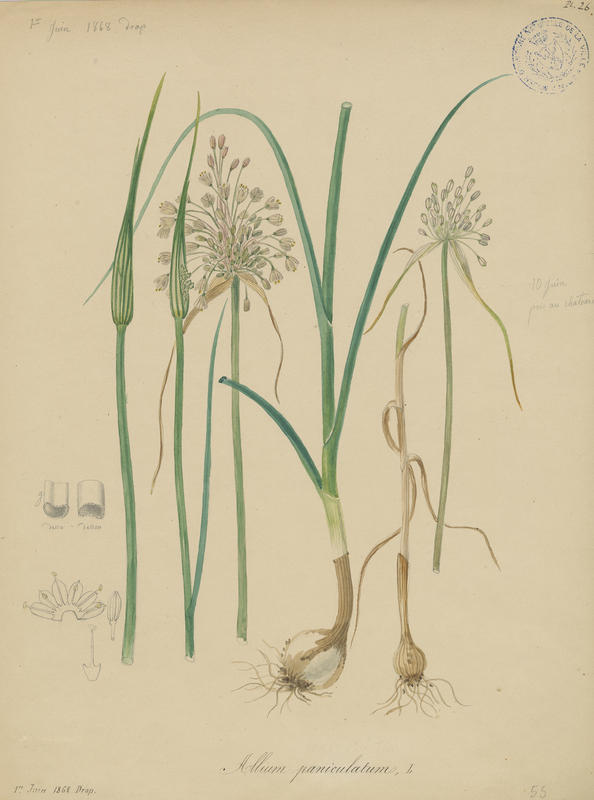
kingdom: Plantae
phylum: Tracheophyta
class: Liliopsida
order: Asparagales
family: Amaryllidaceae
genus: Allium
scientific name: Allium paniculatum
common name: Pale garlic
